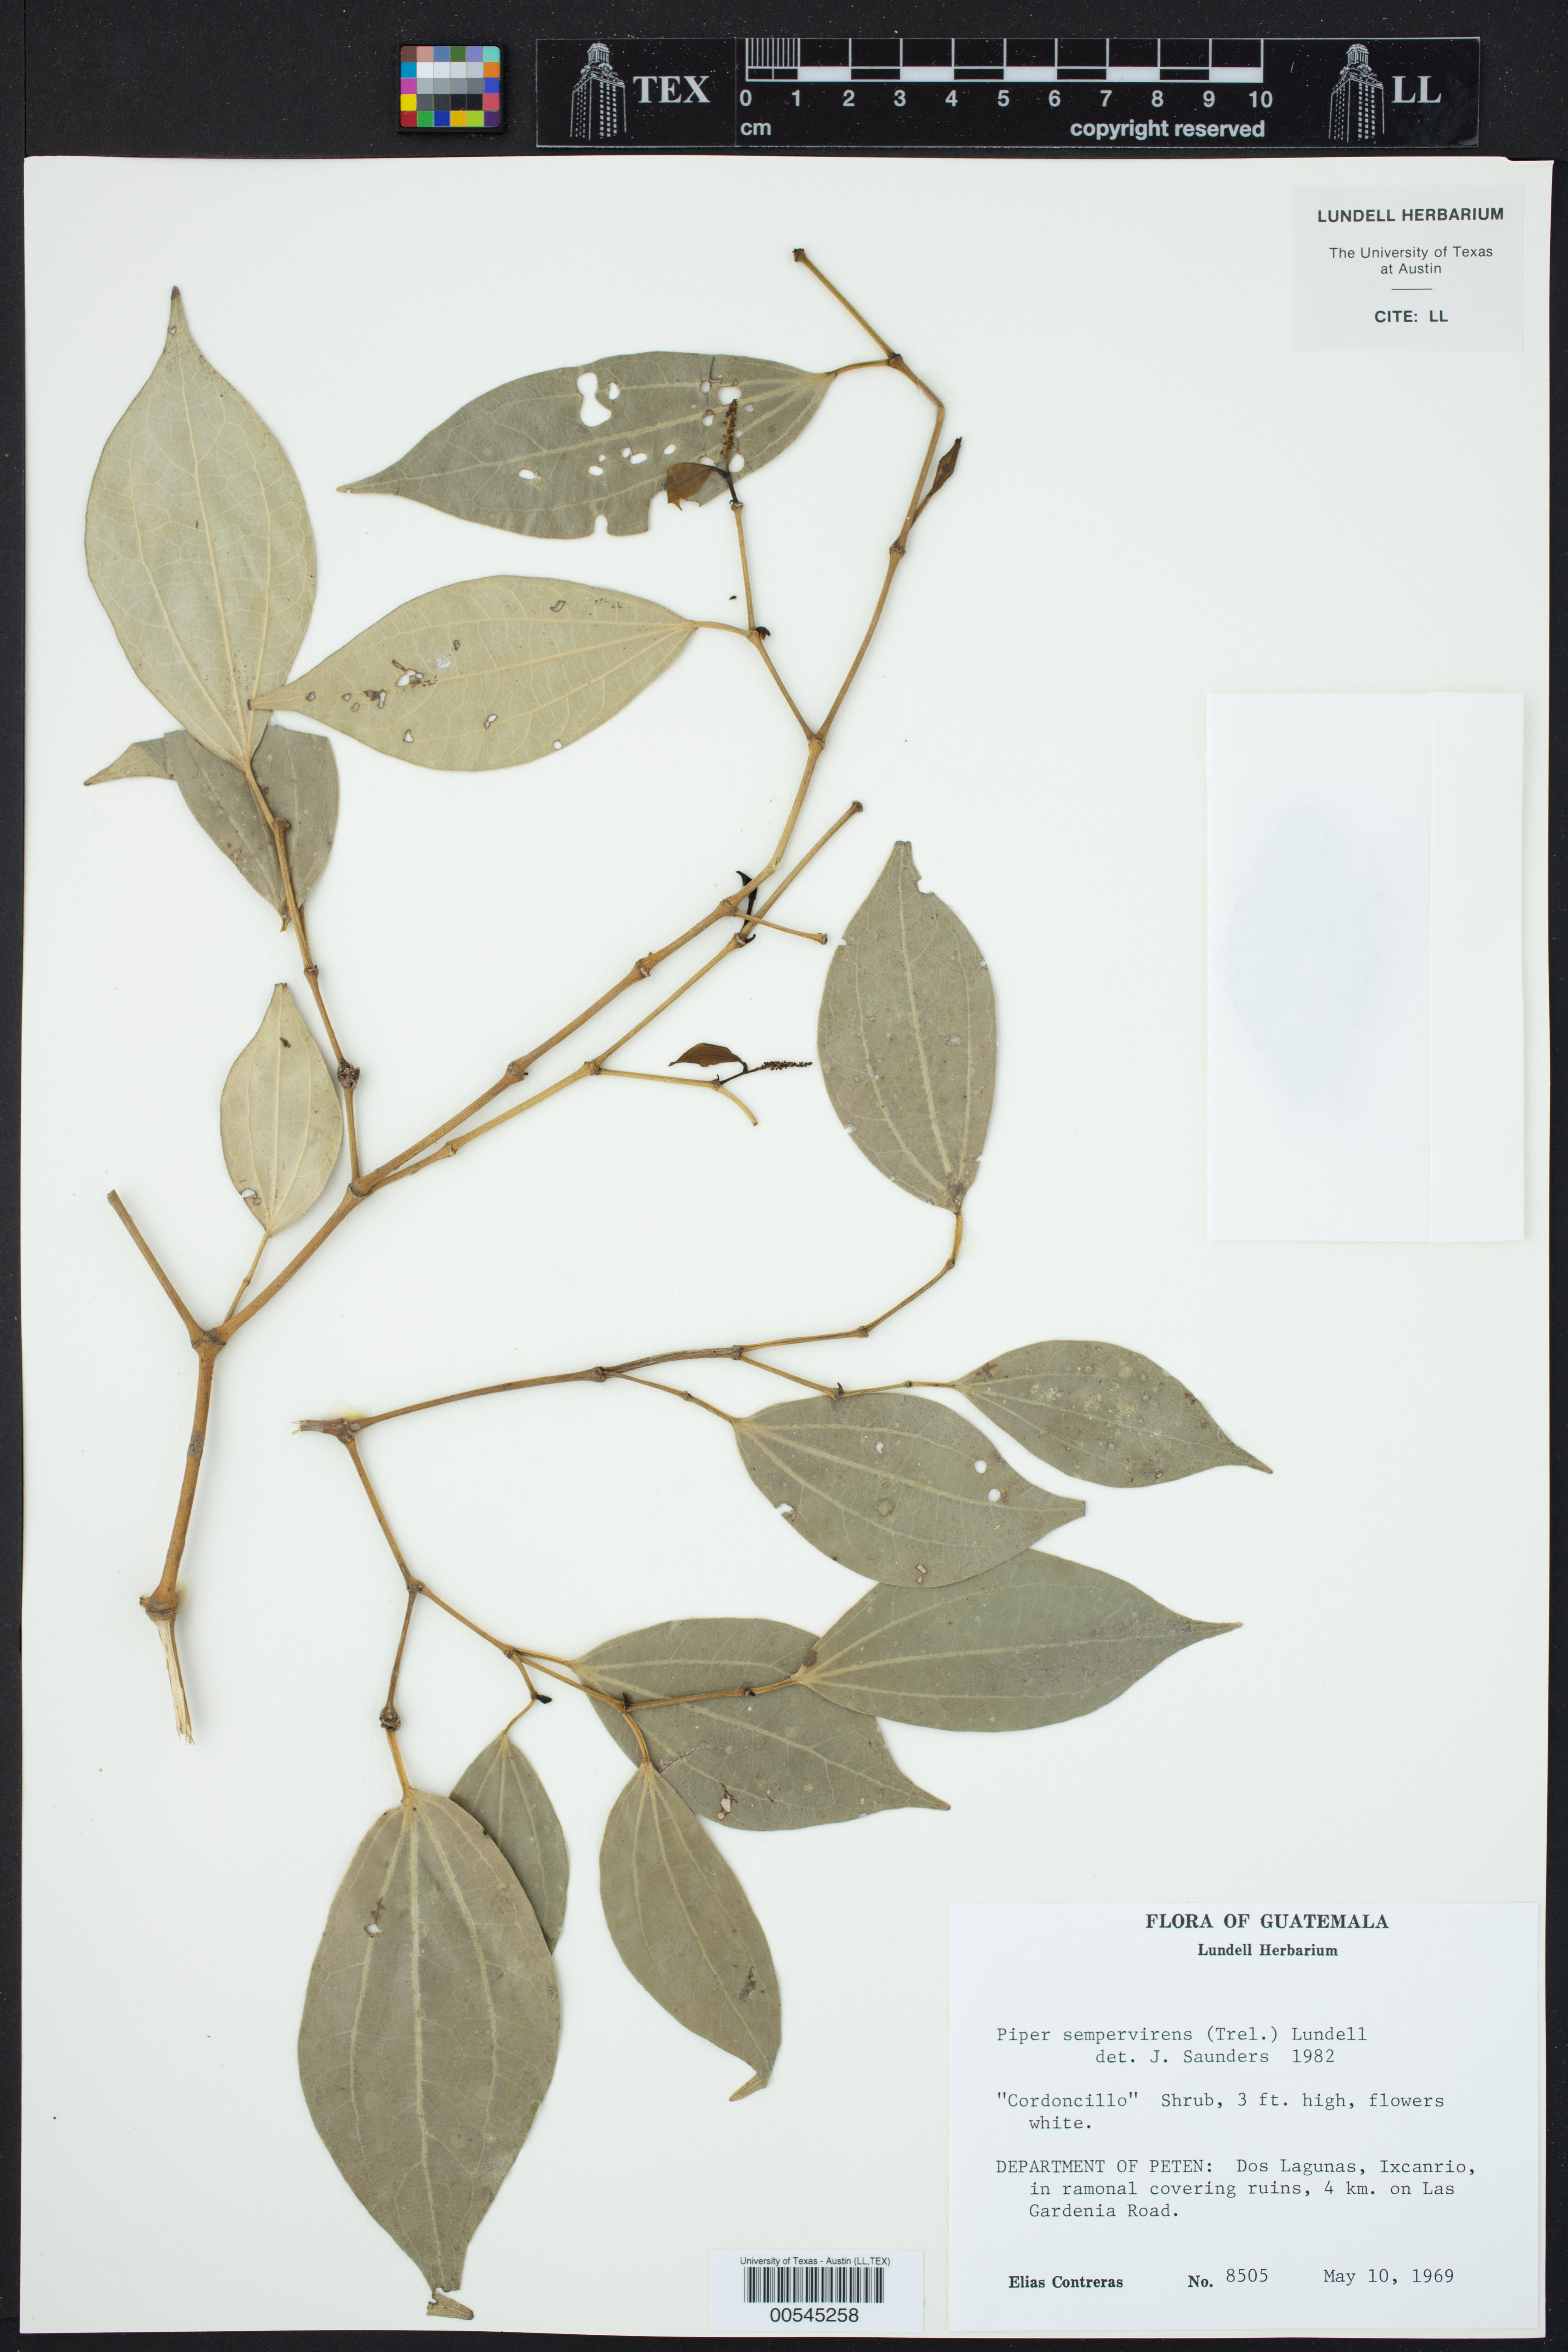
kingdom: Plantae
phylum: Tracheophyta
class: Magnoliopsida
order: Piperales
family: Piperaceae
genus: Piper
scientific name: Piper neesianum
